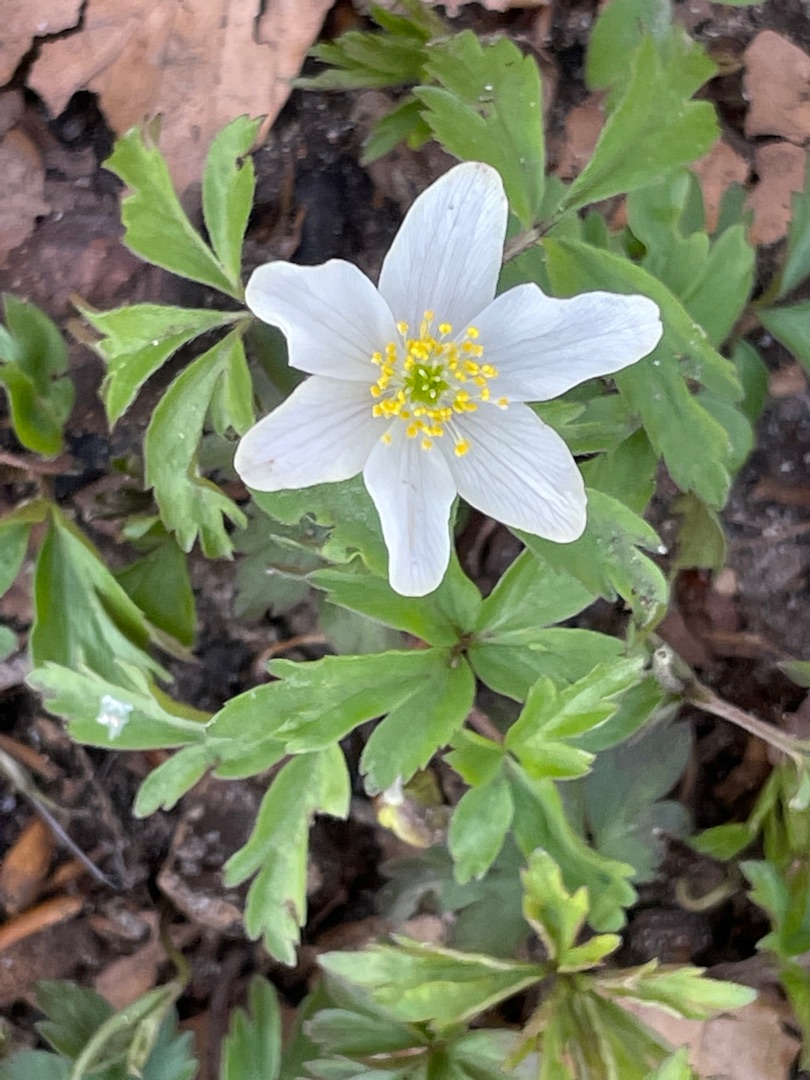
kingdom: Plantae
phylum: Tracheophyta
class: Magnoliopsida
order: Ranunculales
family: Ranunculaceae
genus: Anemone
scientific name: Anemone nemorosa
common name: Hvid anemone
